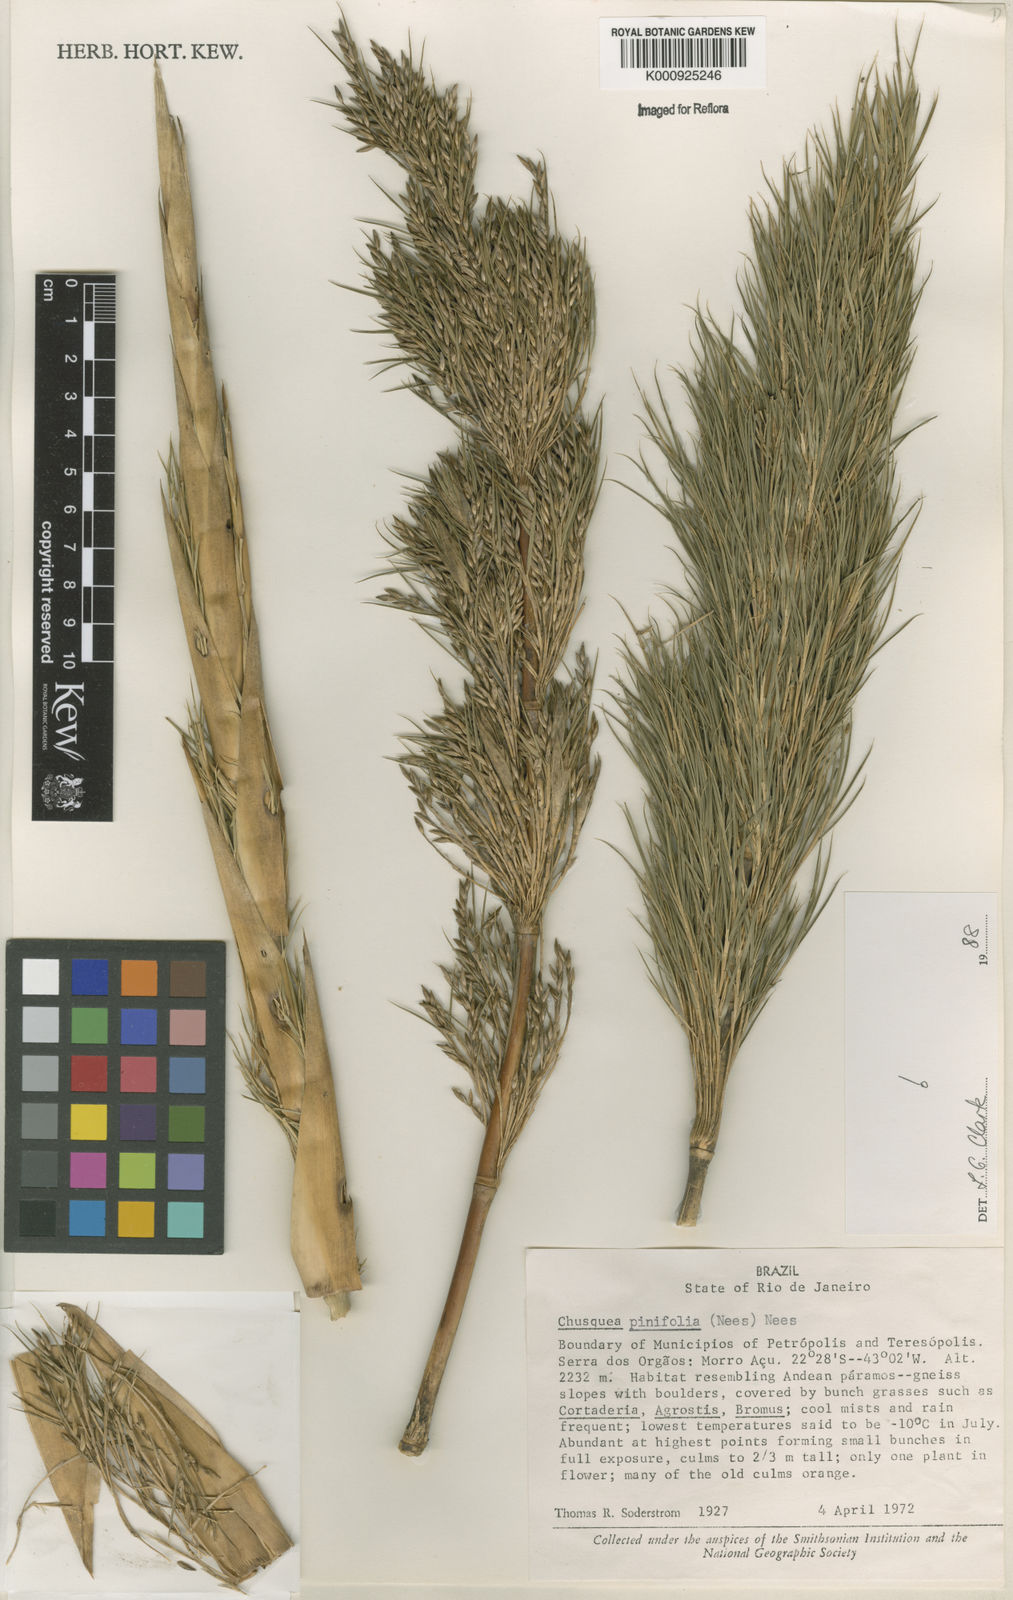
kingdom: Plantae
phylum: Tracheophyta
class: Liliopsida
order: Poales
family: Poaceae
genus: Chusquea
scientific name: Chusquea pinifolia
